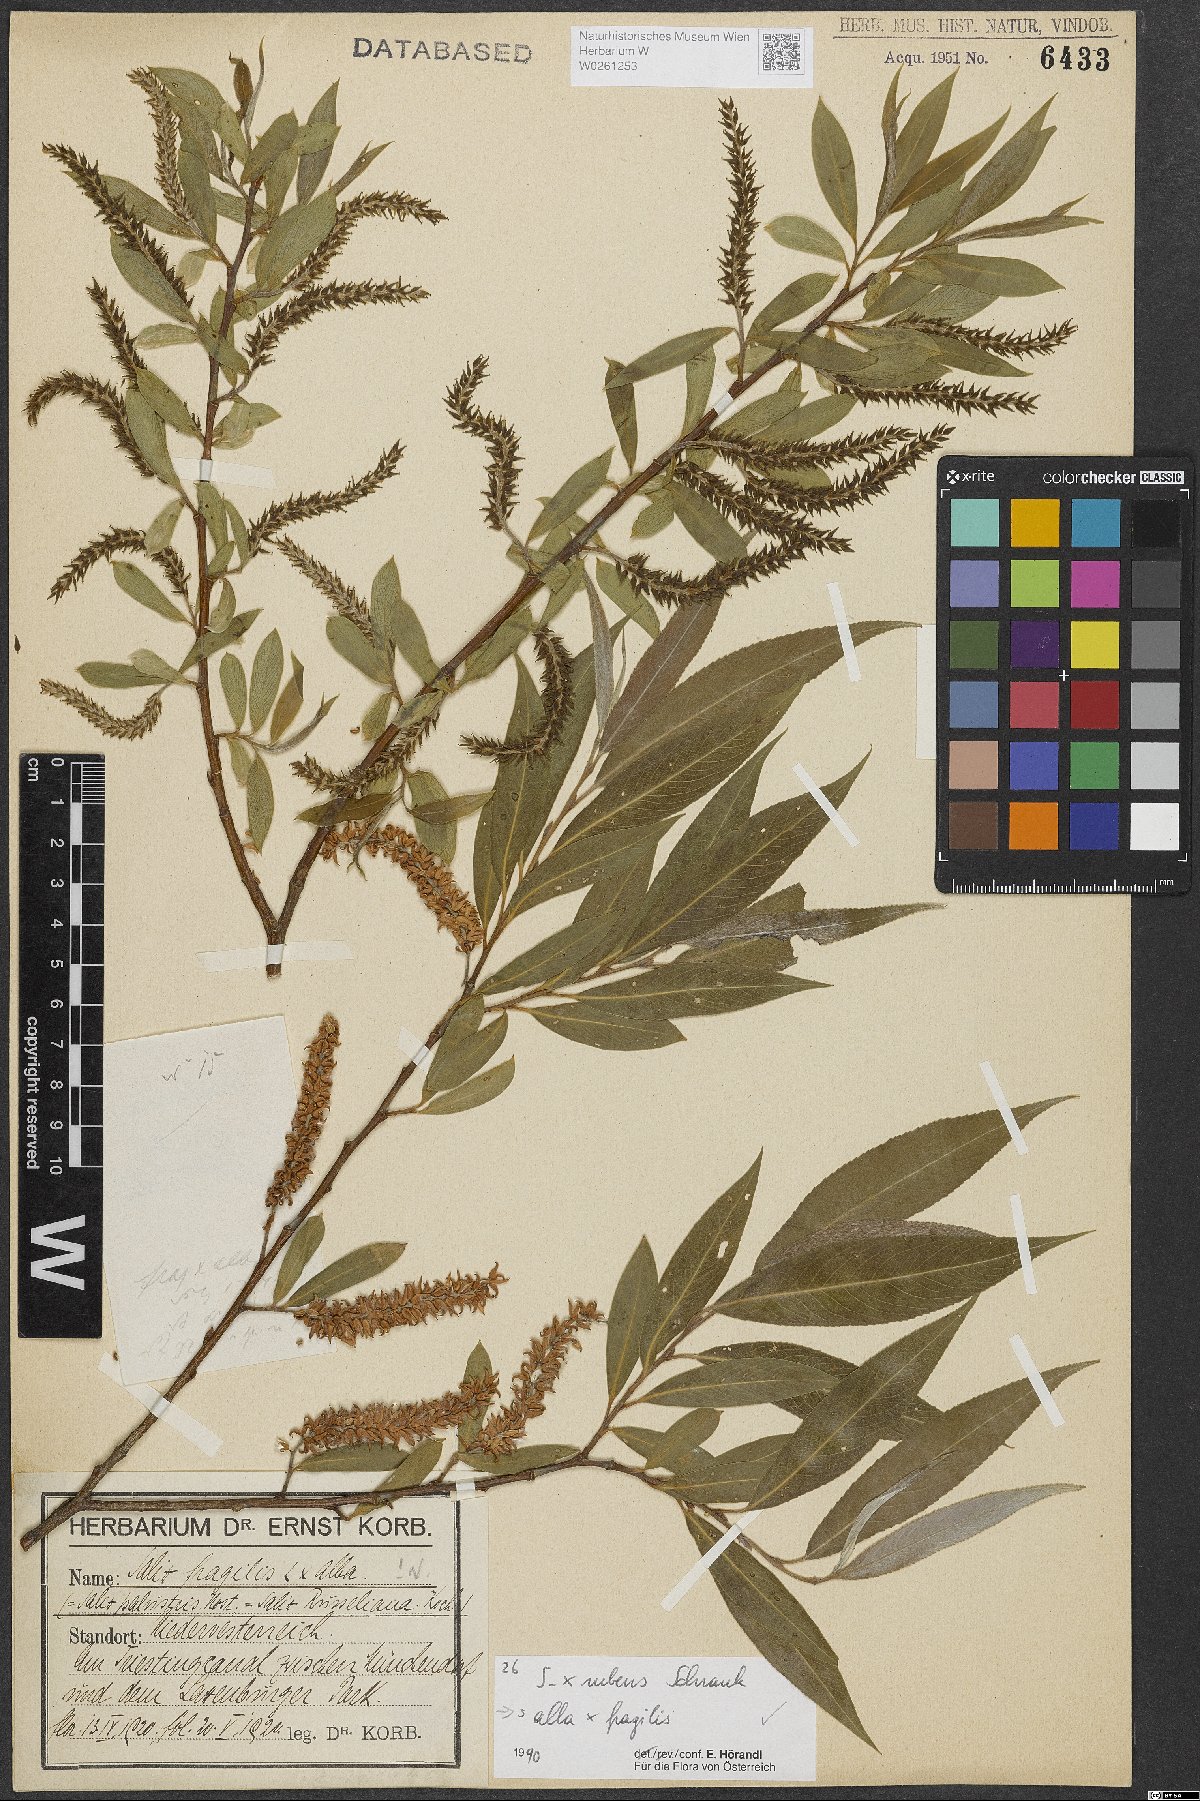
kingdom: Plantae
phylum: Tracheophyta
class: Magnoliopsida
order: Malpighiales
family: Salicaceae
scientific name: Salicaceae
